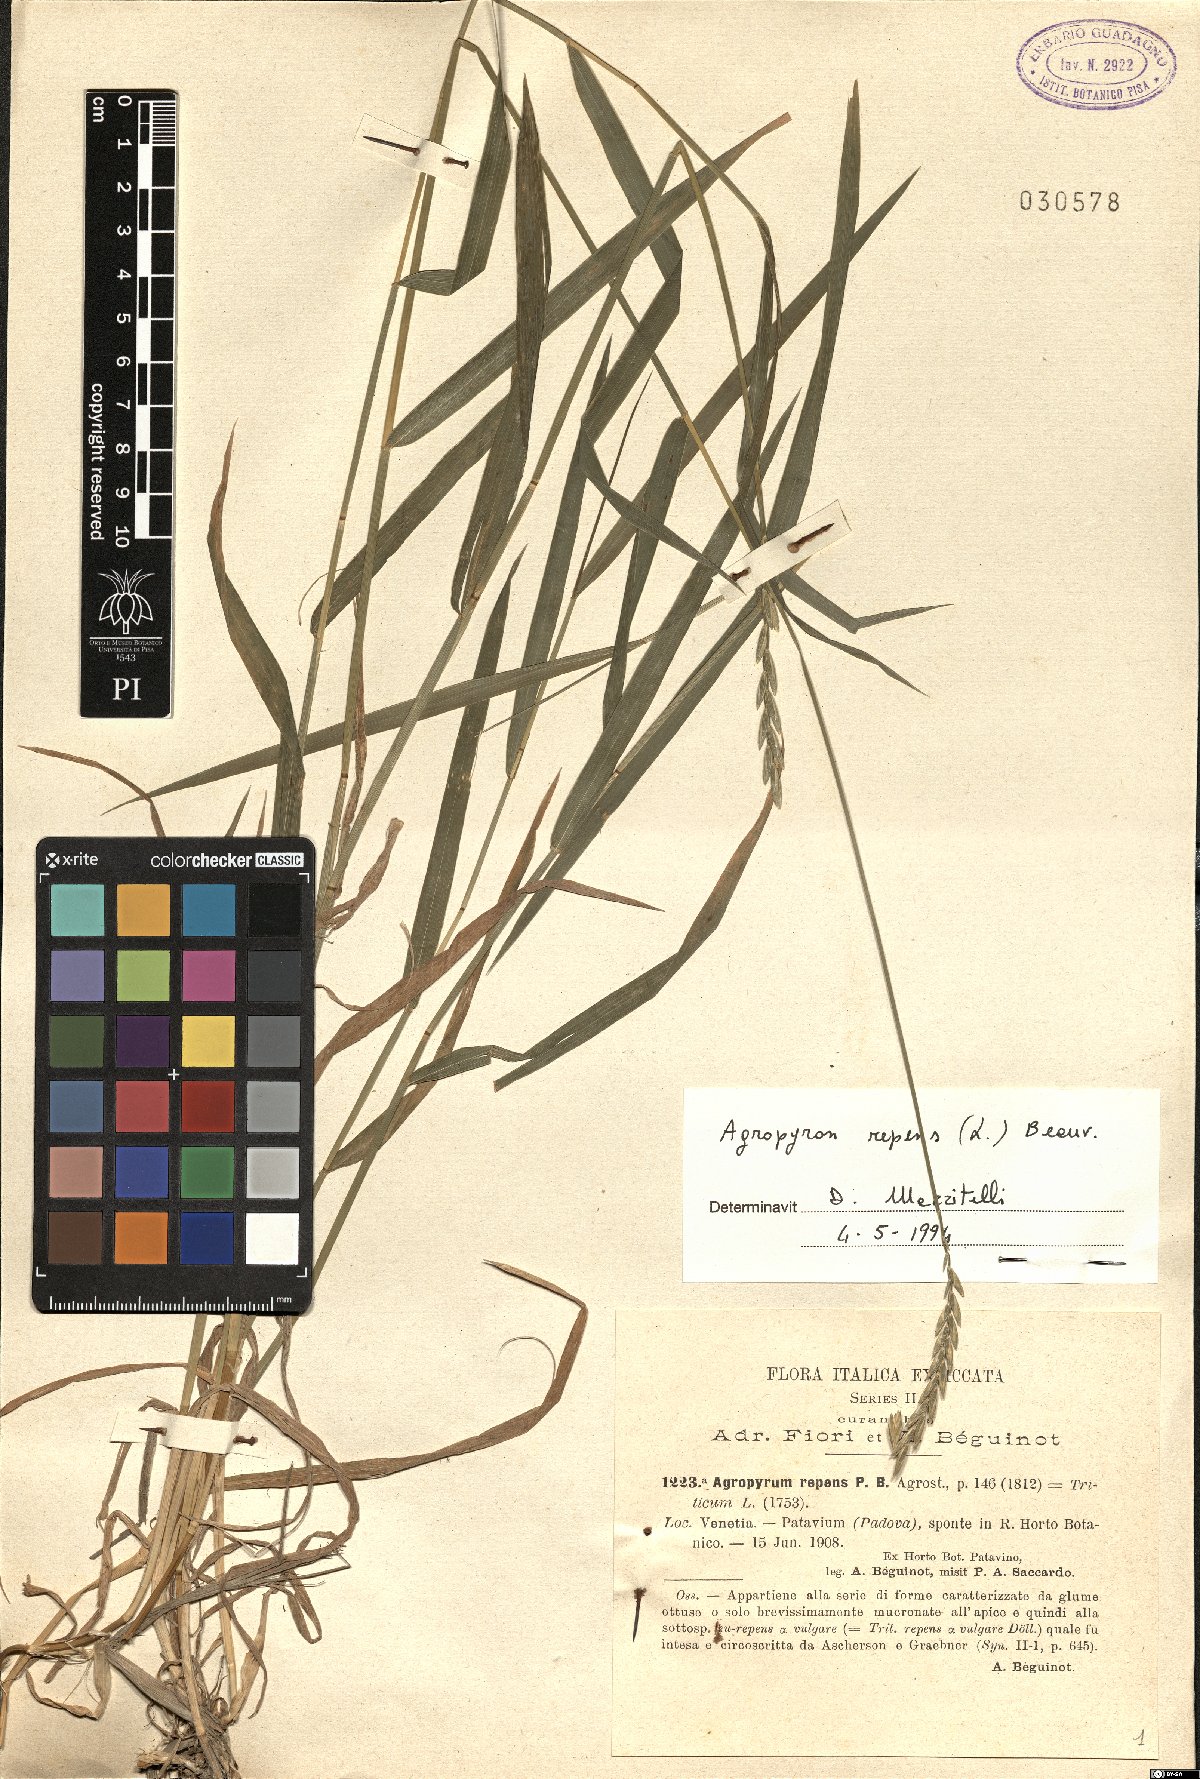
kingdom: Plantae
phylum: Tracheophyta
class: Liliopsida
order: Poales
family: Poaceae
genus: Elymus
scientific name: Elymus repens
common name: Quackgrass
